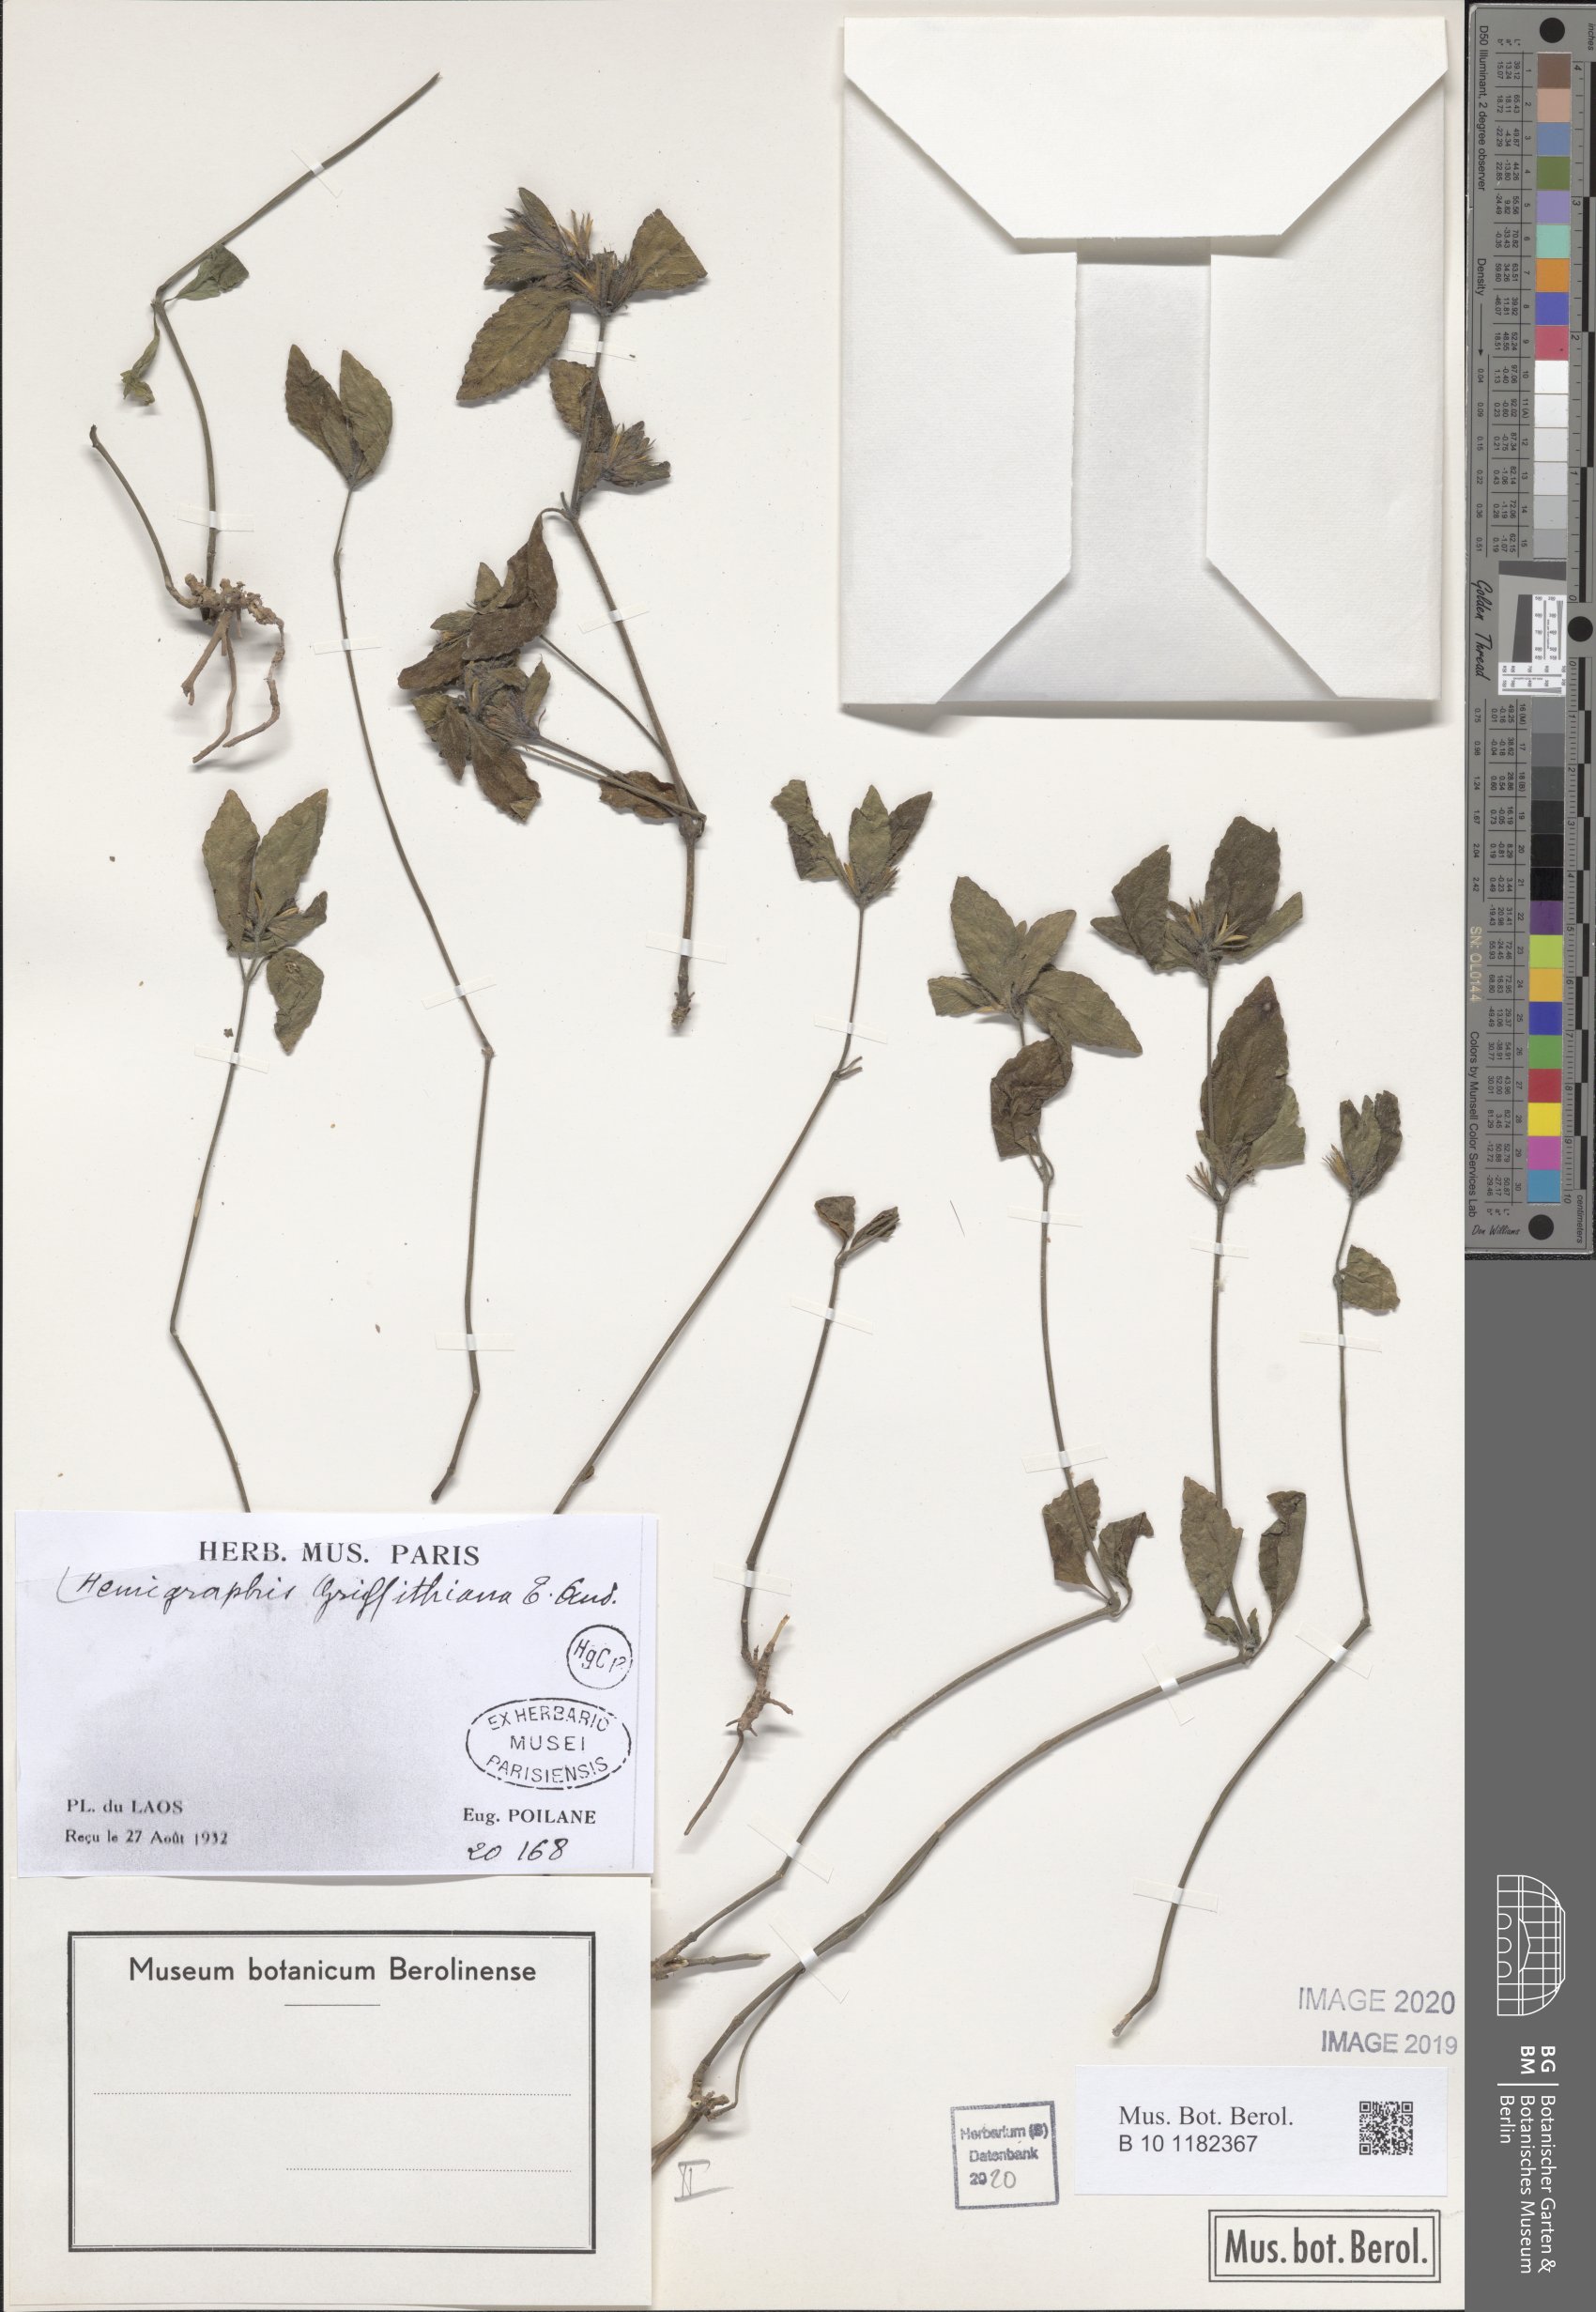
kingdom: Plantae
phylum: Tracheophyta
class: Magnoliopsida
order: Lamiales
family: Acanthaceae
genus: Strobilanthes
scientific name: Strobilanthes brunelloides
